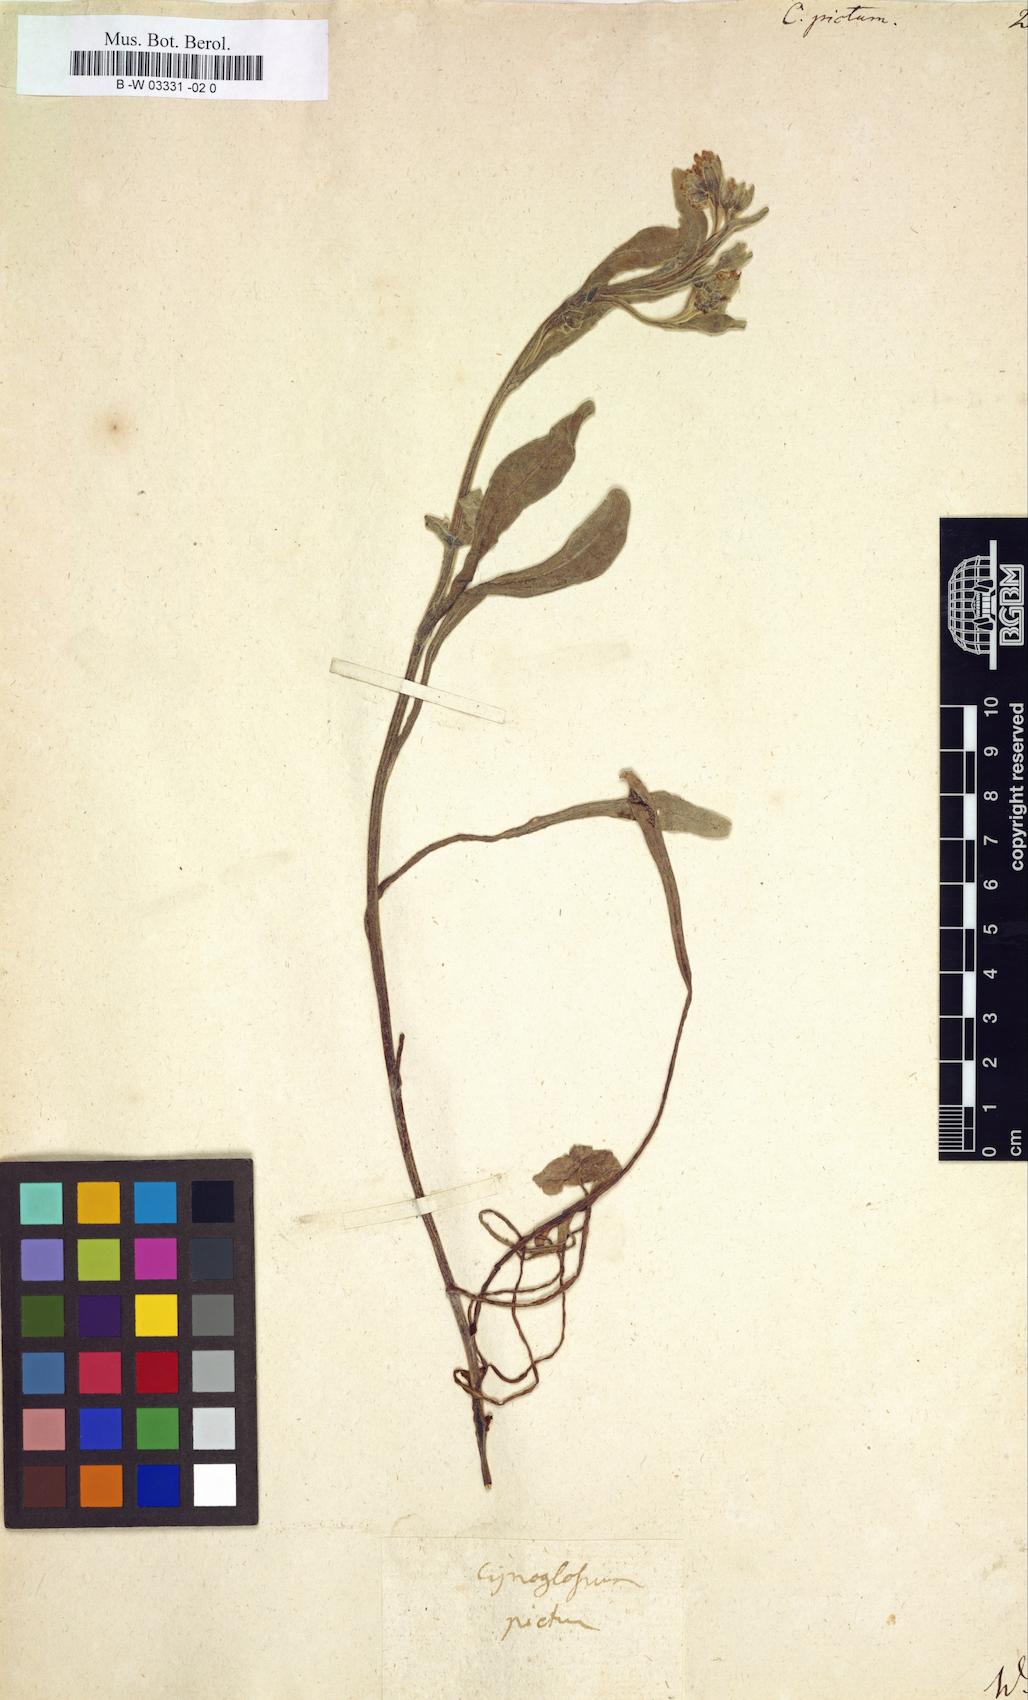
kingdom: Plantae
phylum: Tracheophyta
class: Magnoliopsida
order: Boraginales
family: Boraginaceae
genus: Cynoglossum
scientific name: Cynoglossum creticum
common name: Blue hound's tongue
